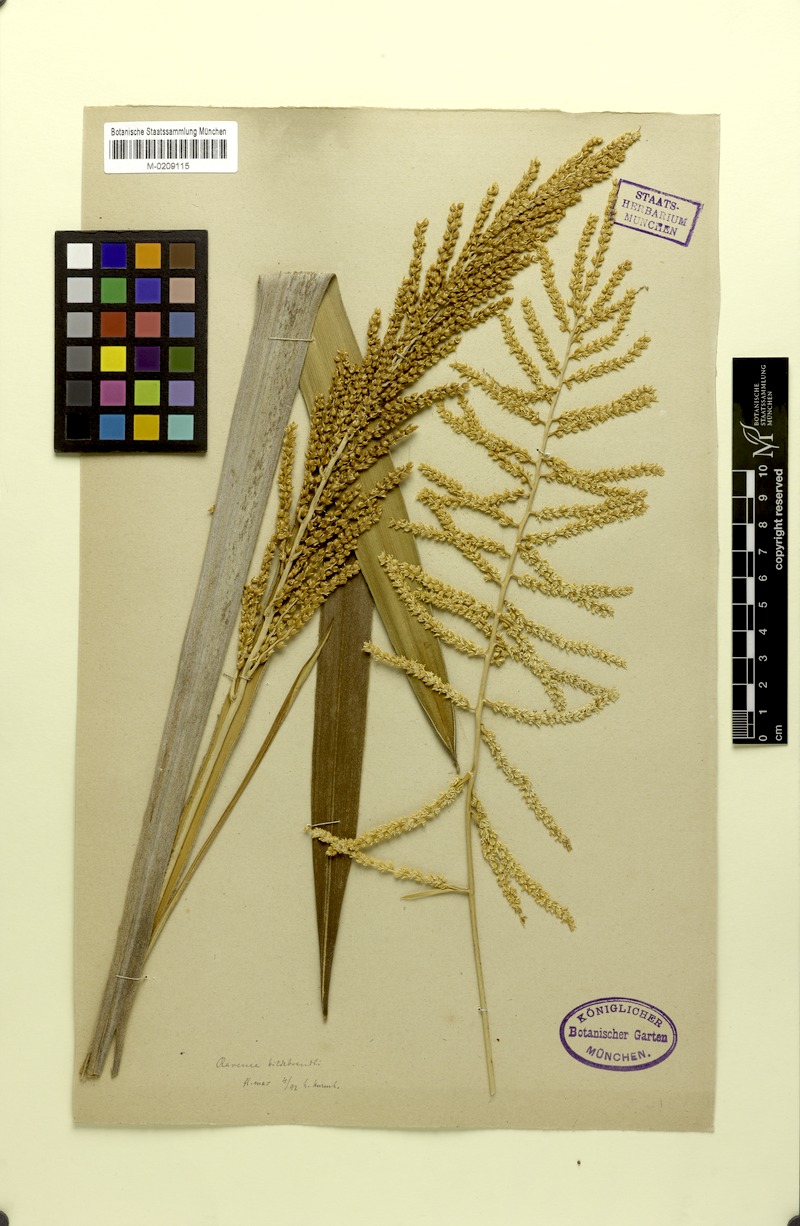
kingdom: Plantae
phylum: Tracheophyta
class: Liliopsida
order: Arecales
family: Arecaceae
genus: Ravenea
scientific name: Ravenea hildebrandtii
